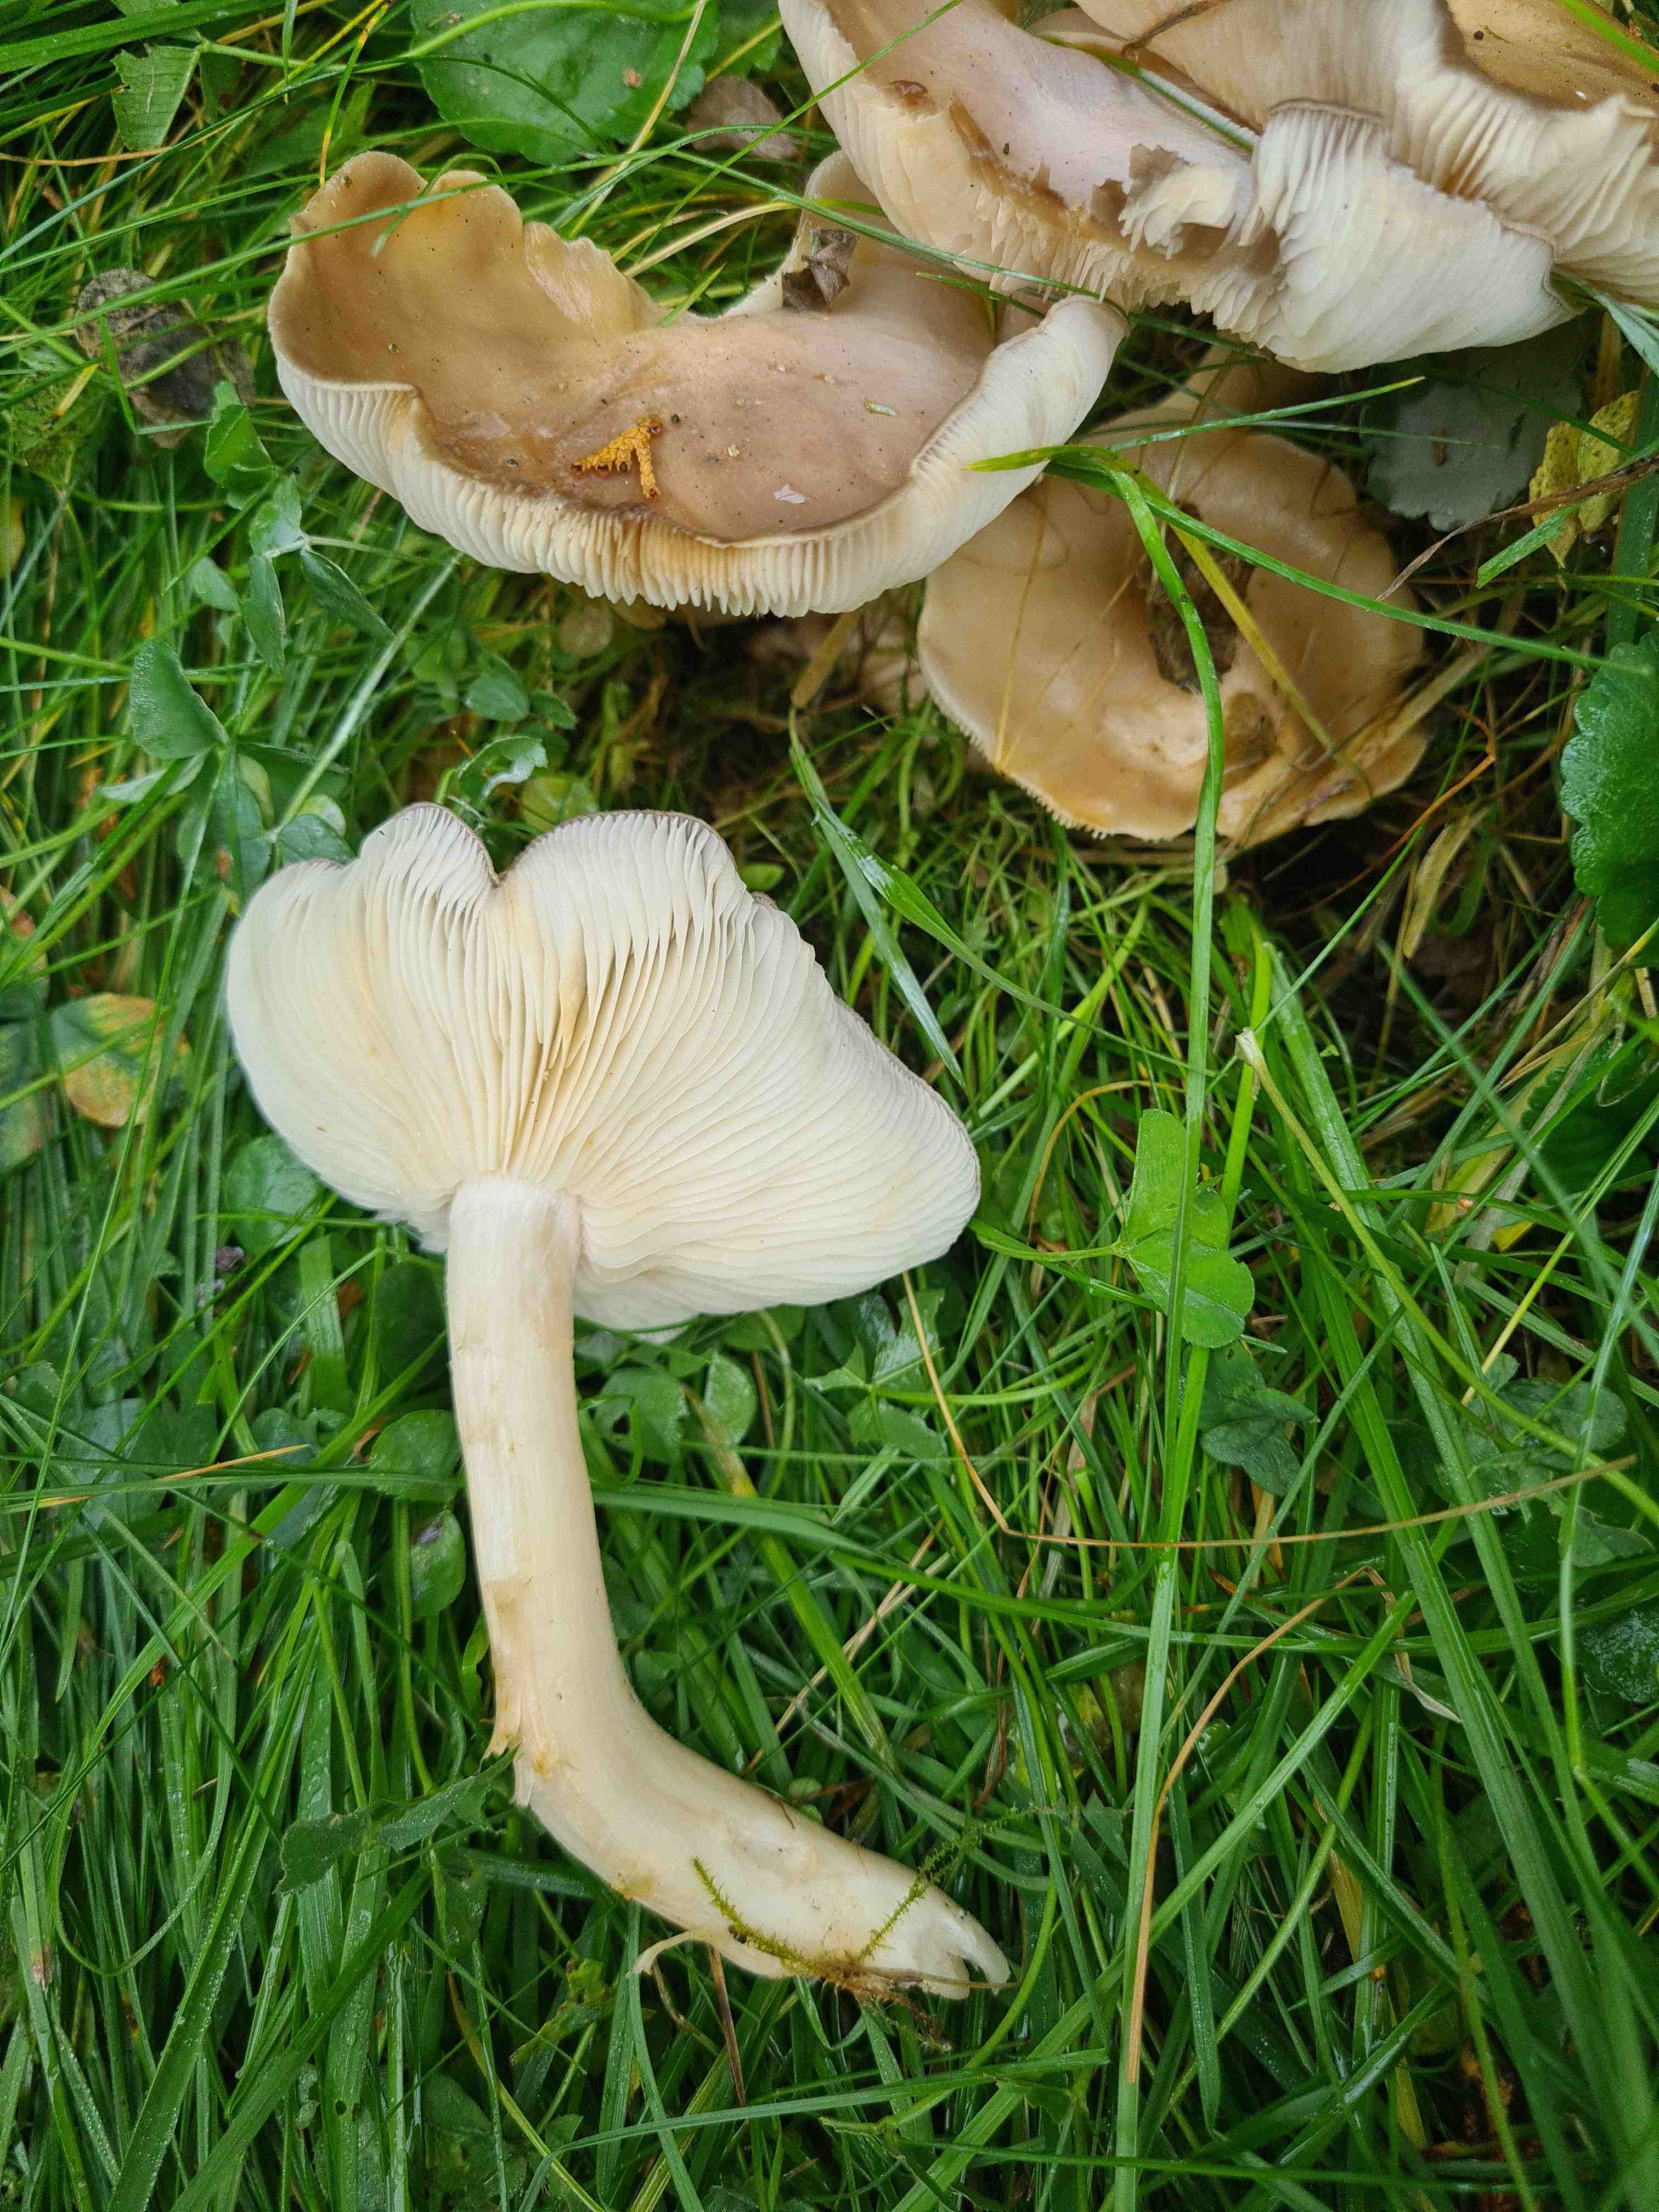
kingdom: Fungi
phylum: Basidiomycota
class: Agaricomycetes
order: Agaricales
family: Lyophyllaceae
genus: Lyophyllum
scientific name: Lyophyllum
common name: gråblad
